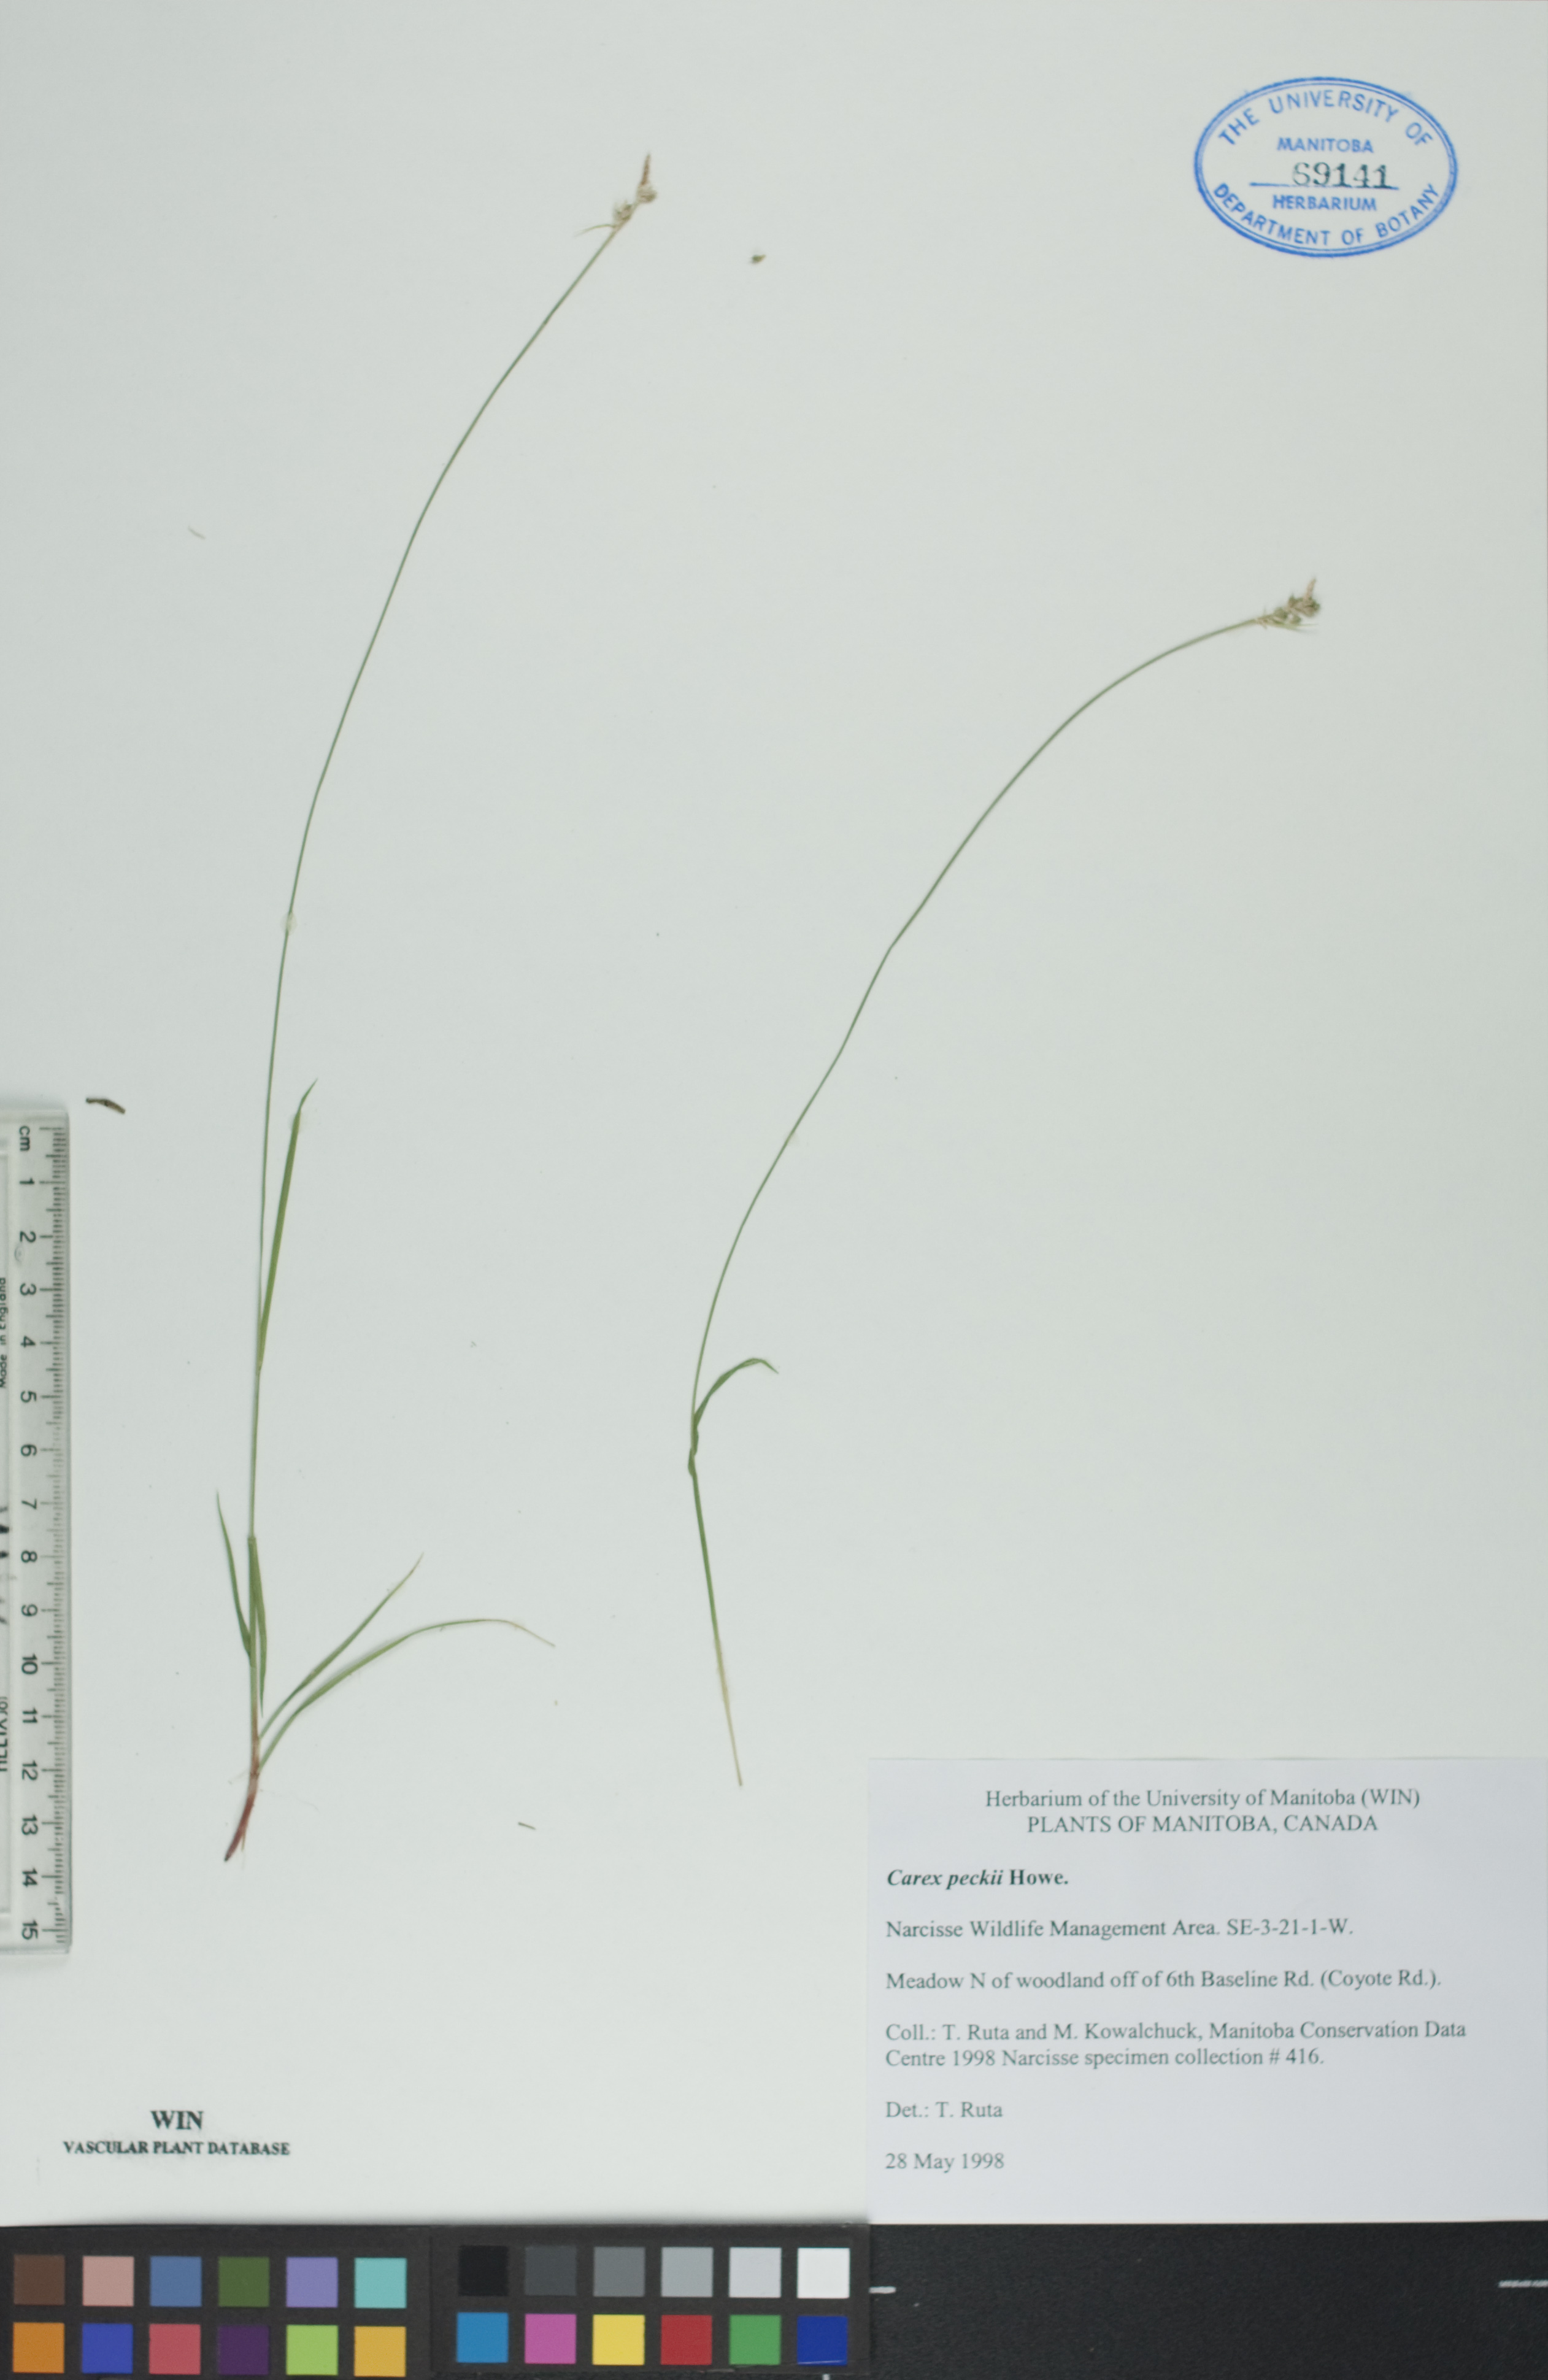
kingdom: Plantae
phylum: Tracheophyta
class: Liliopsida
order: Poales
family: Cyperaceae
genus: Carex
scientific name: Carex peckii
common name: Peck's oak sedge
